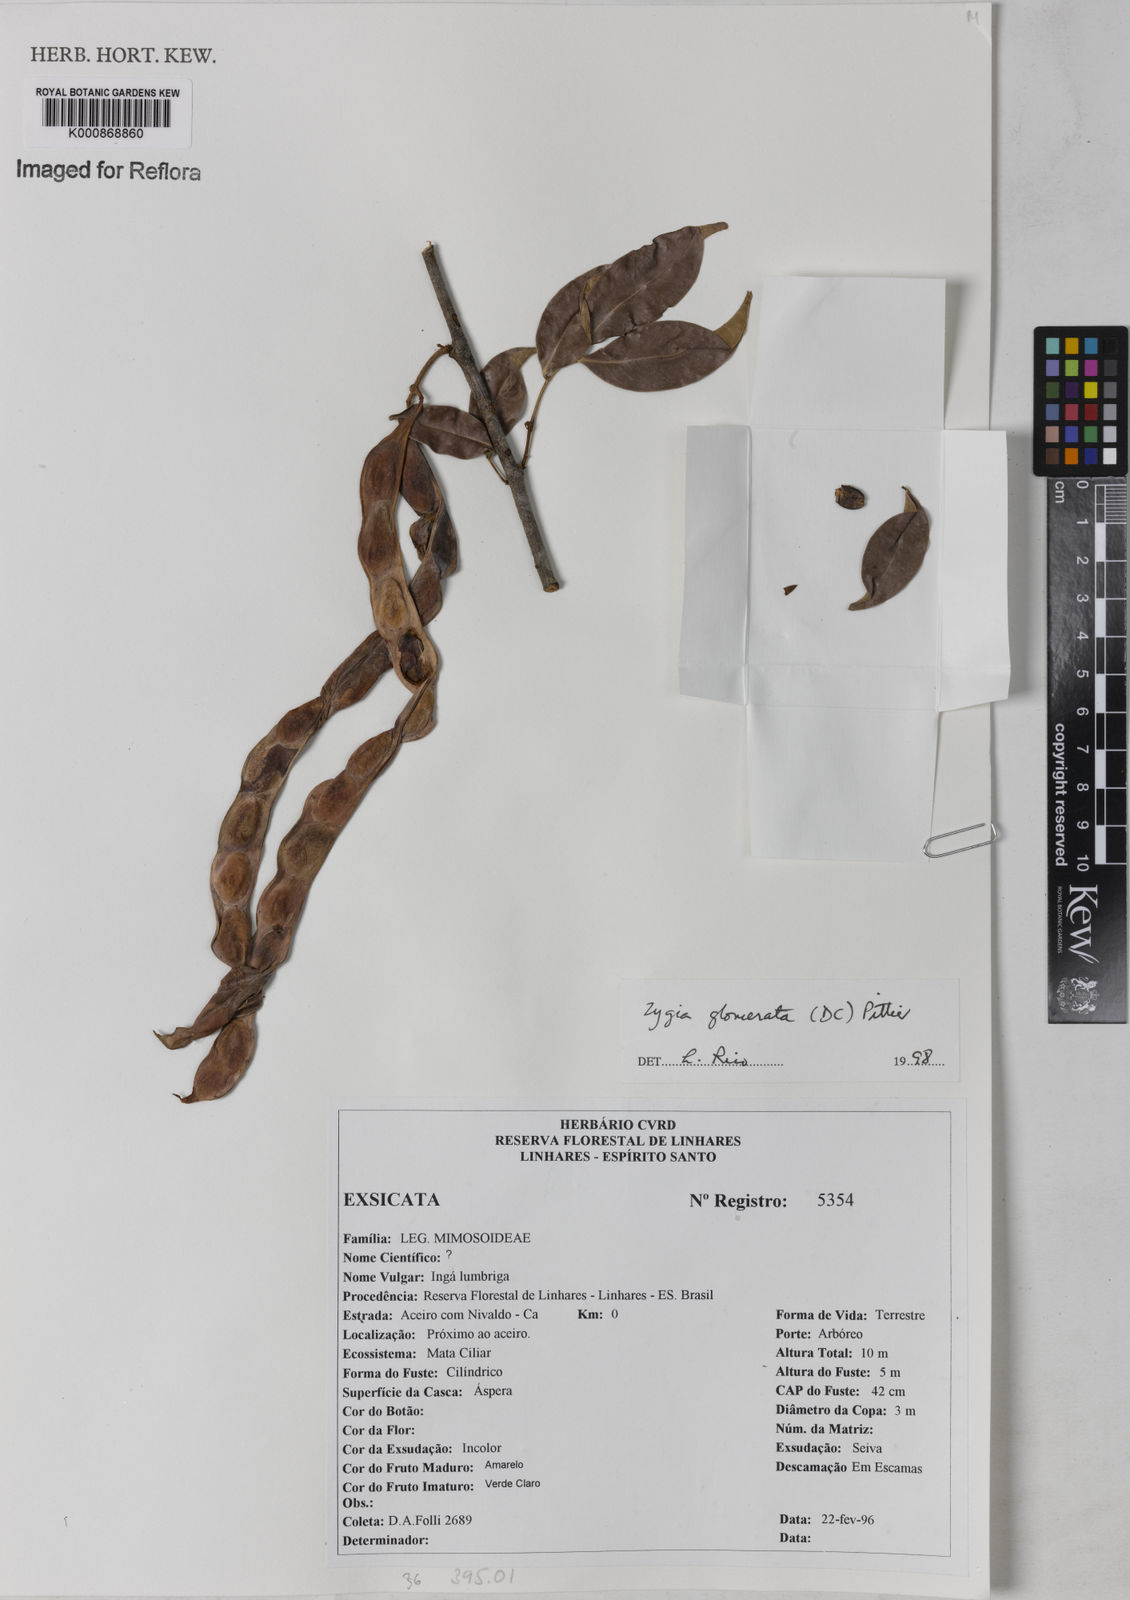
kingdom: Plantae
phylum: Tracheophyta
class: Magnoliopsida
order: Fabales
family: Fabaceae
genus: Zygia
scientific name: Zygia cataractae
